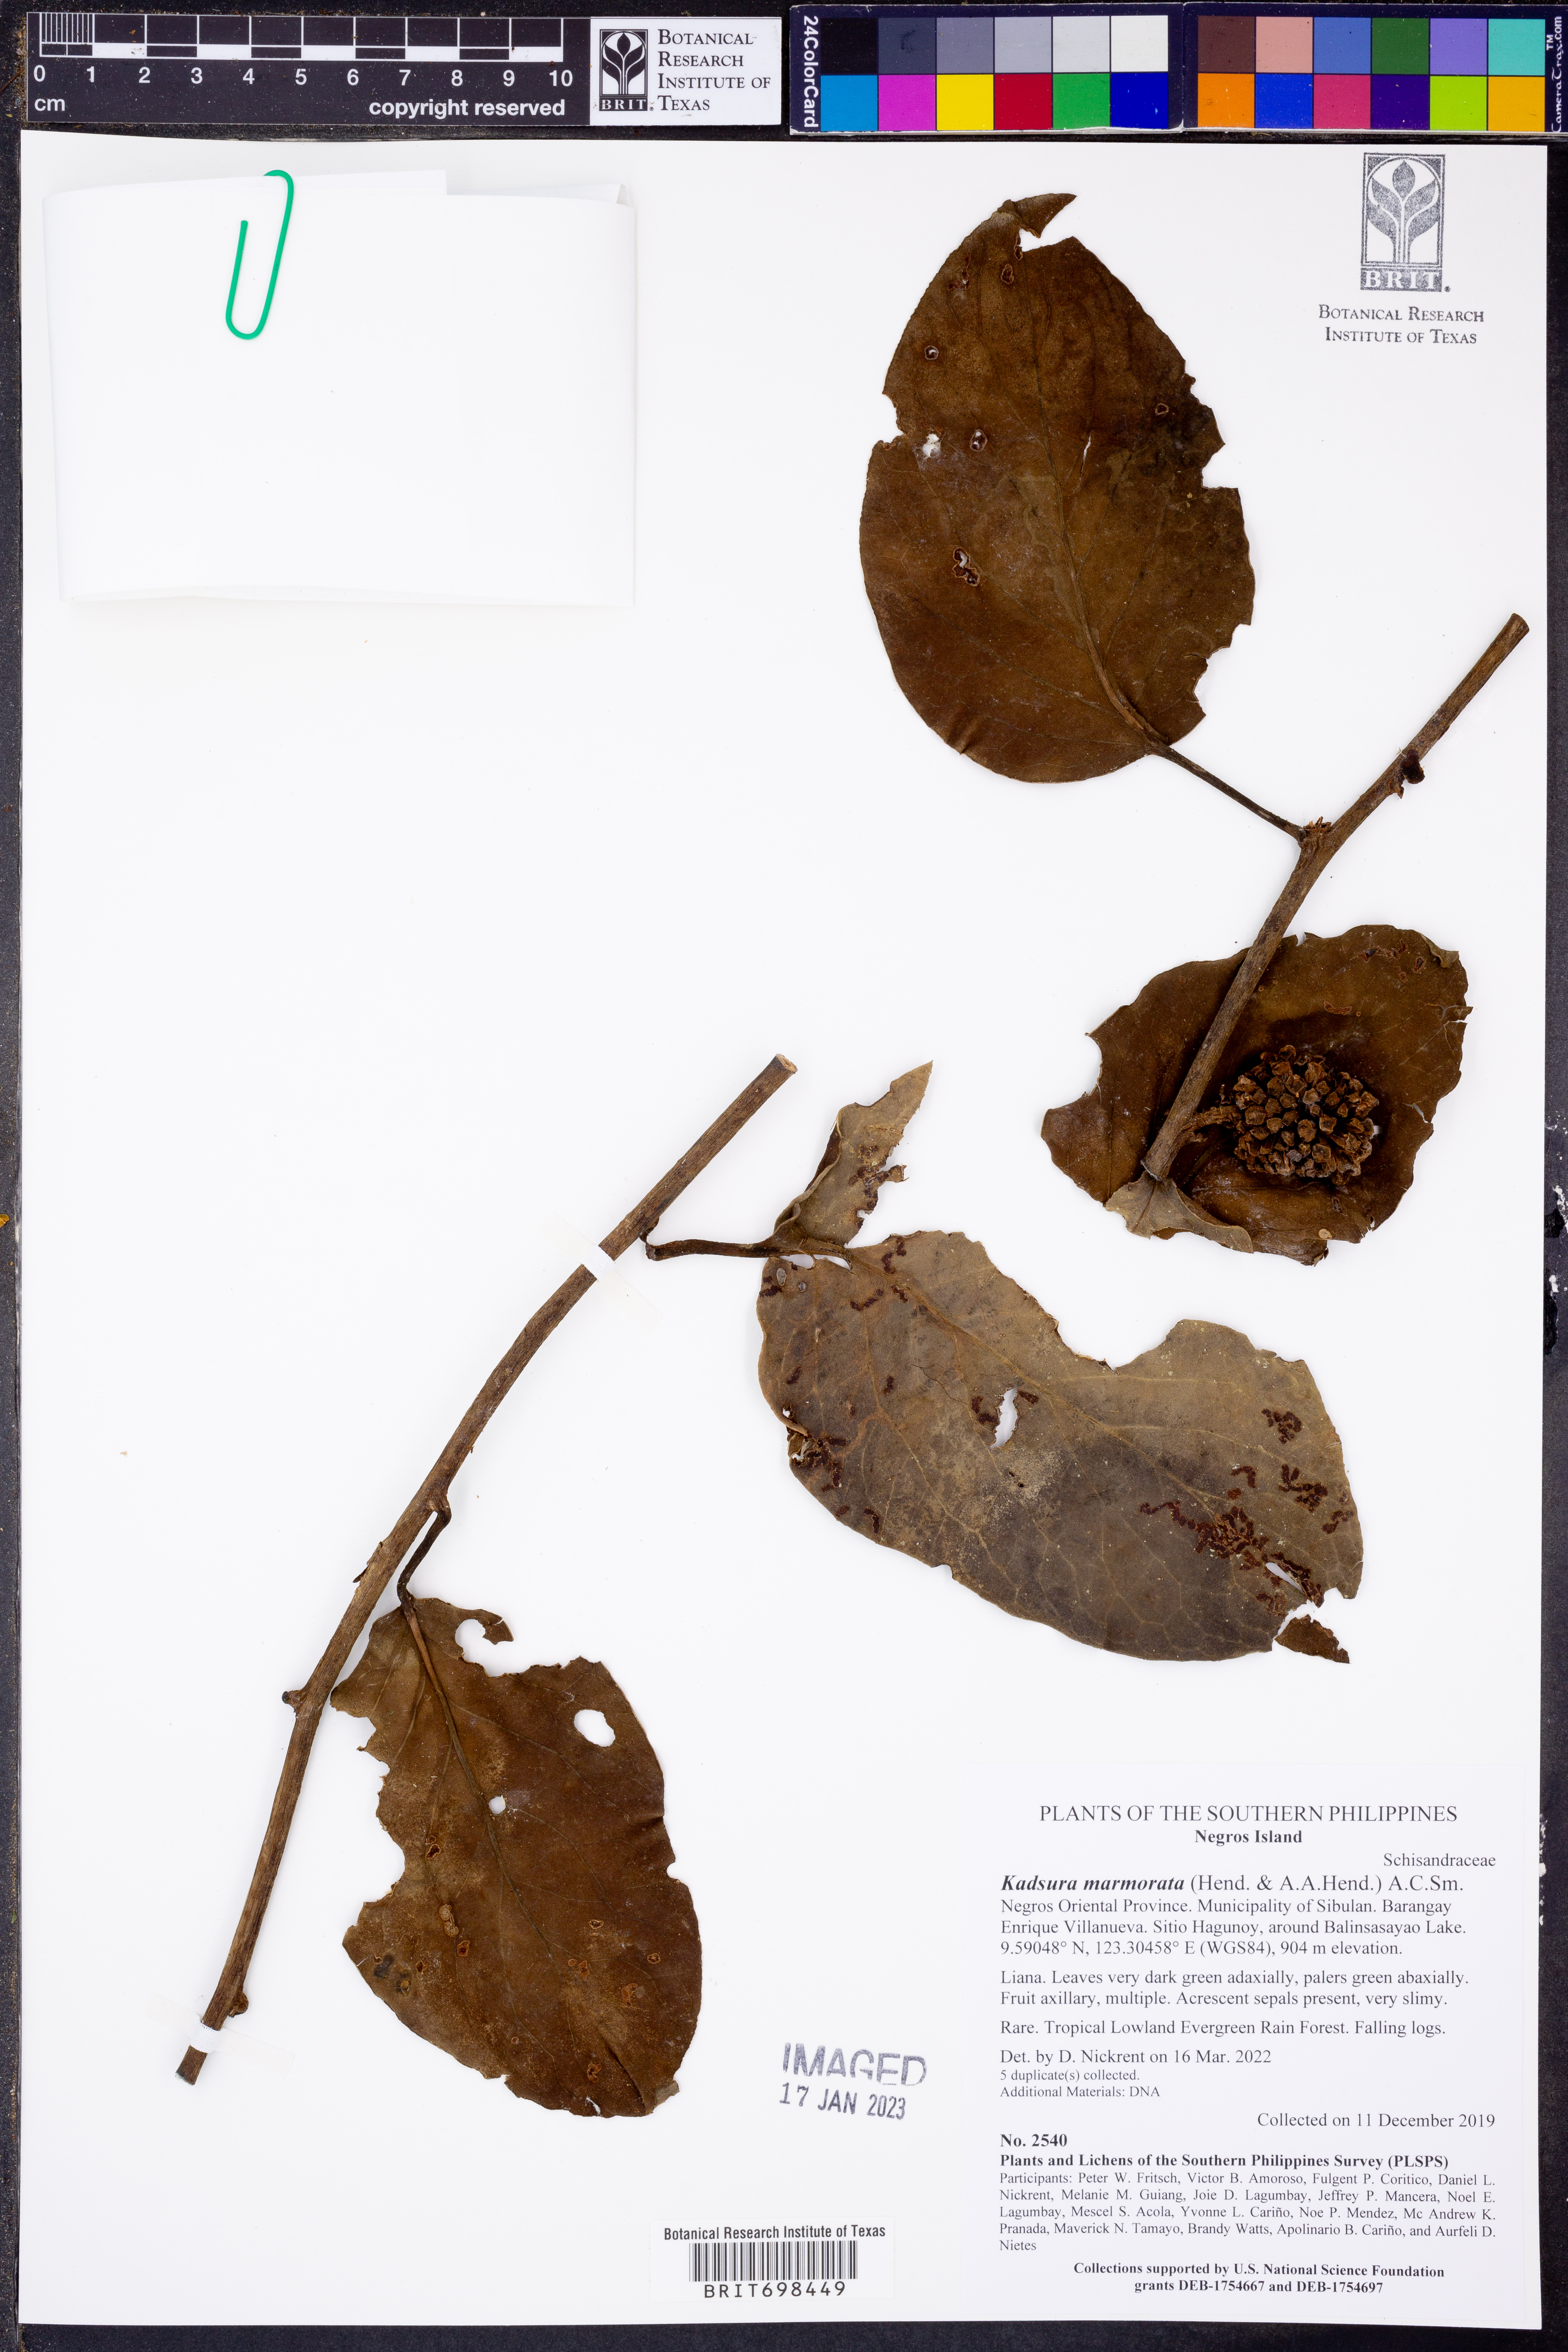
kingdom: Plantae
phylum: Tracheophyta
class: Magnoliopsida
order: Austrobaileyales
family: Schisandraceae
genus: Kadsura
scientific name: Kadsura marmorata
